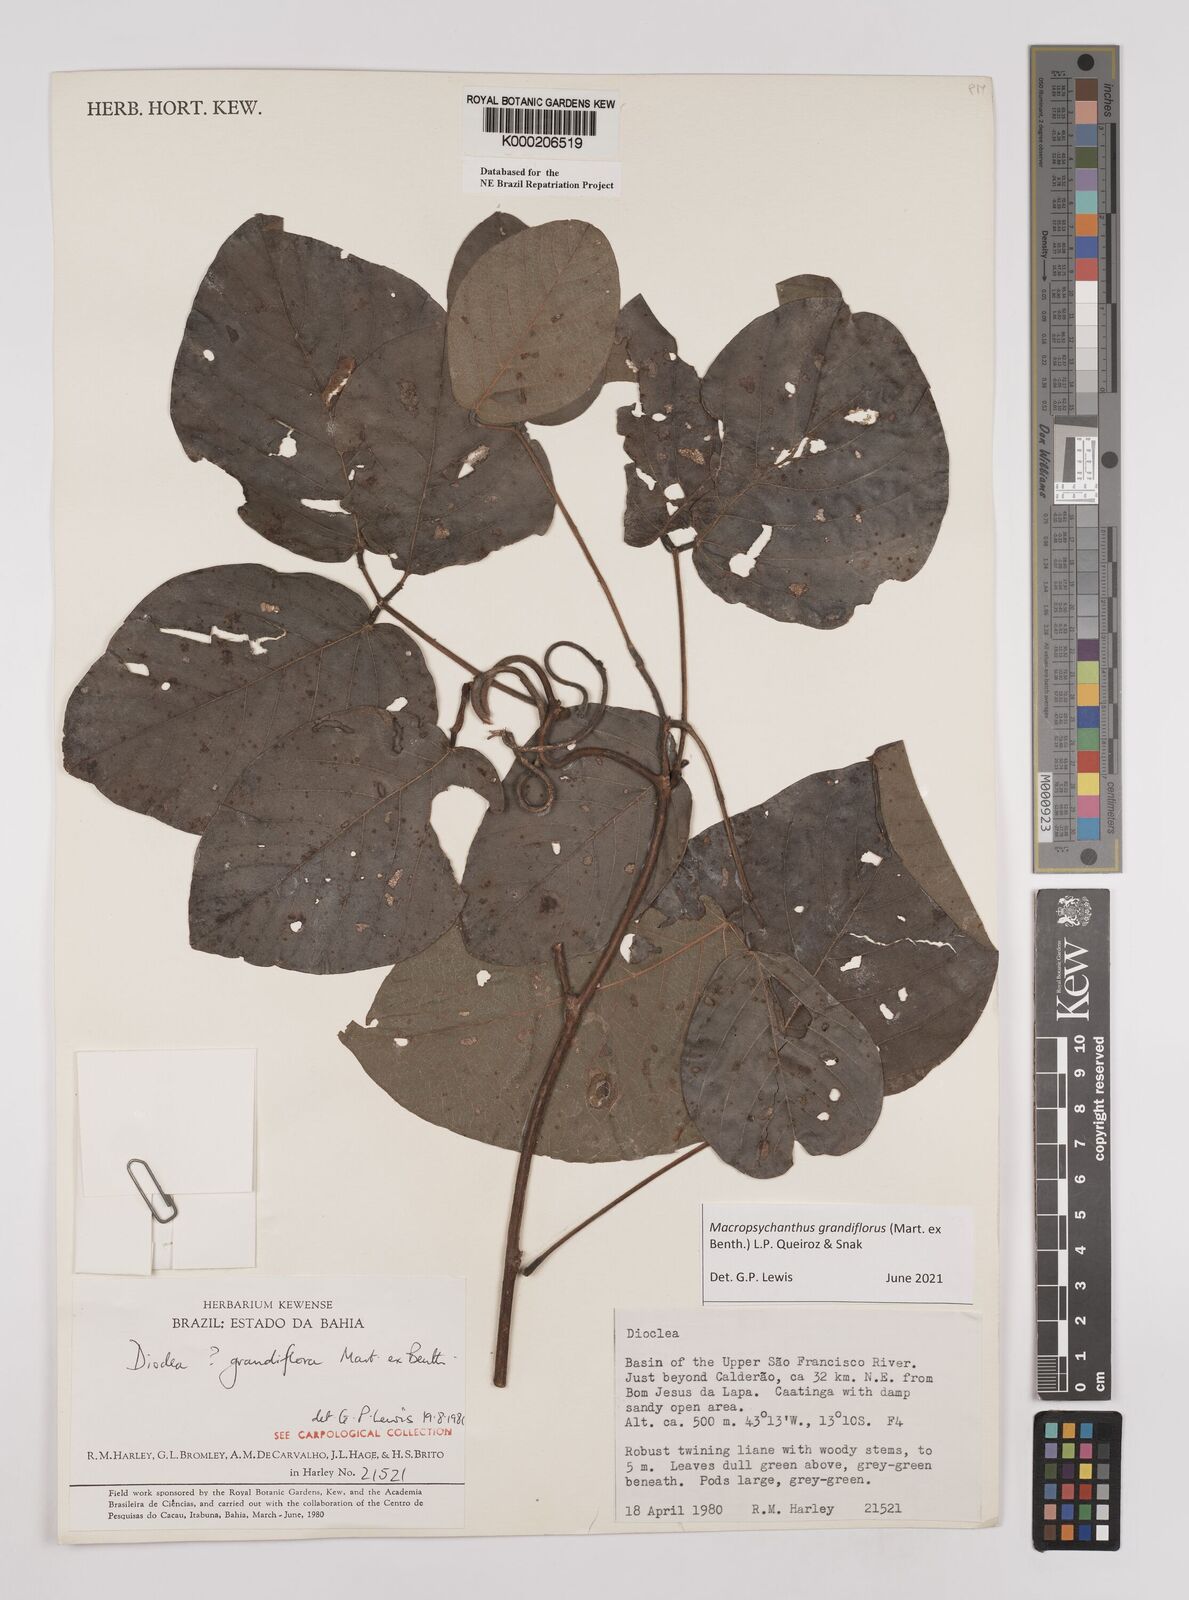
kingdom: Plantae
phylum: Tracheophyta
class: Magnoliopsida
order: Fabales
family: Fabaceae
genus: Macropsychanthus
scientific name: Macropsychanthus grandiflorus
